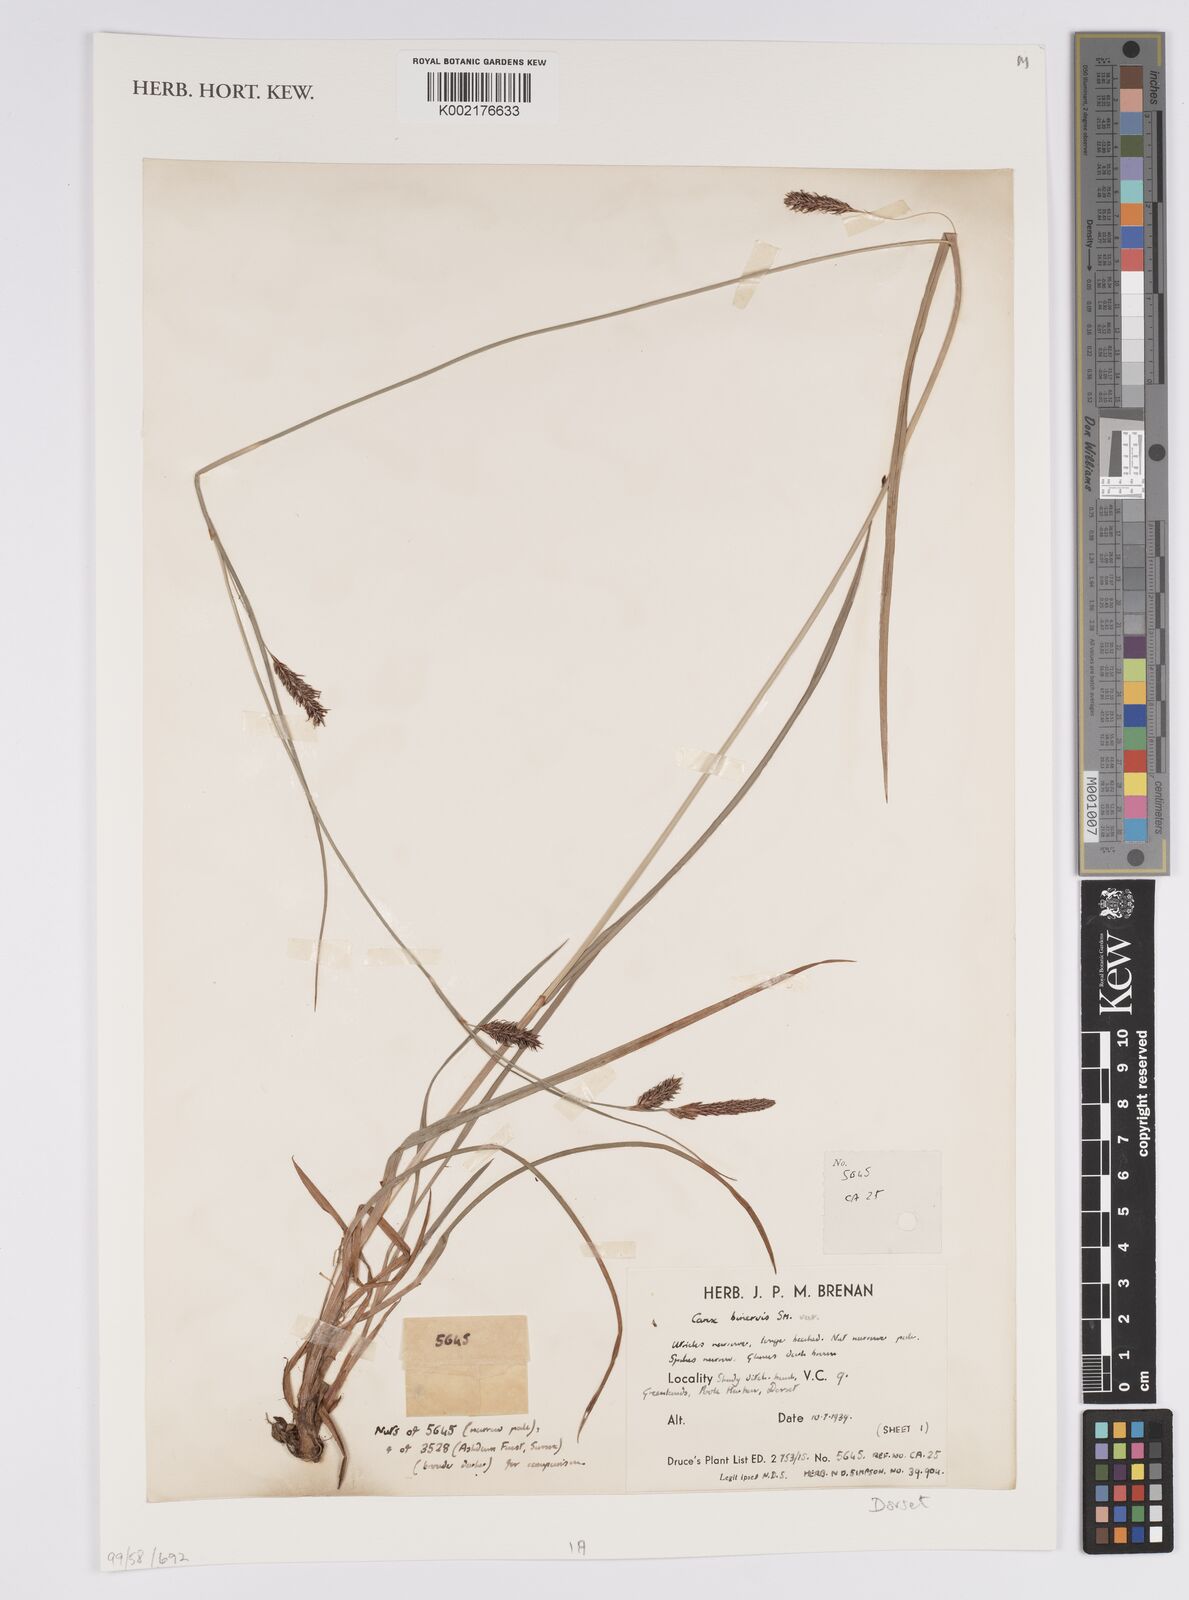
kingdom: Plantae
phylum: Tracheophyta
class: Liliopsida
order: Poales
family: Cyperaceae
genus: Carex
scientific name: Carex binervis
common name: Green-ribbed sedge
